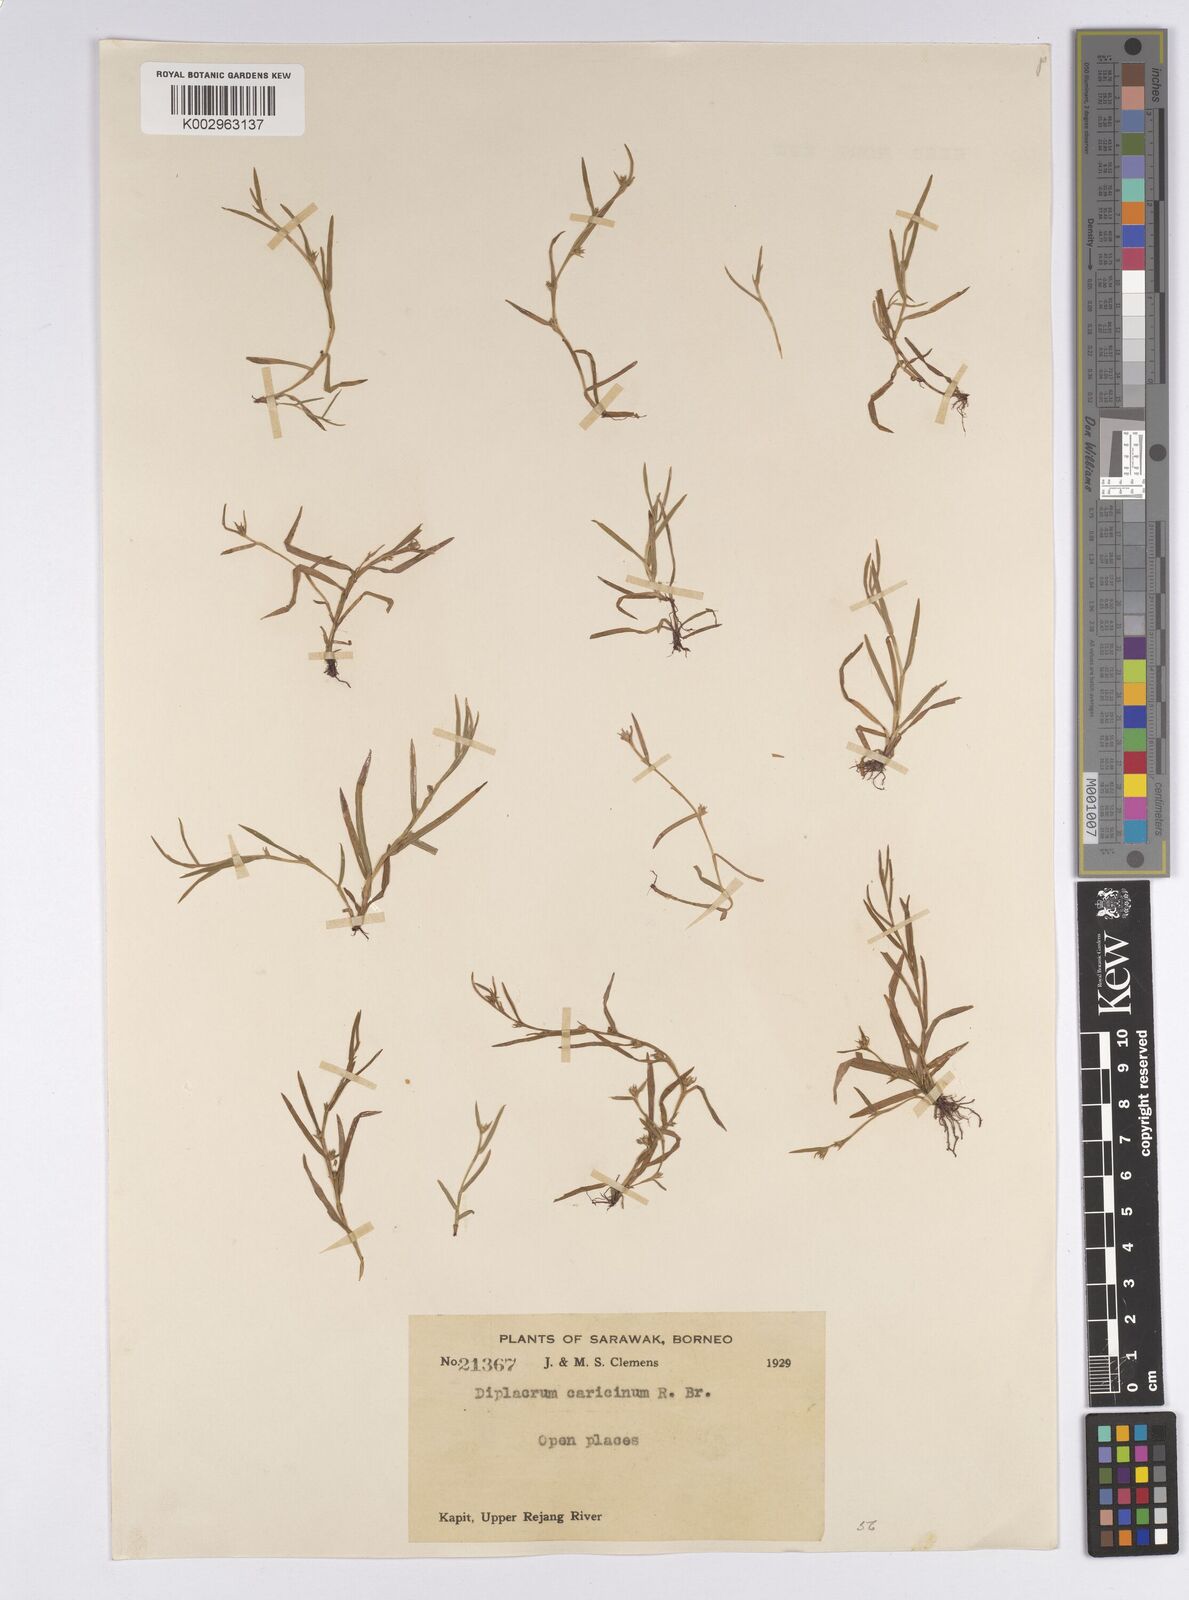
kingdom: Plantae
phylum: Tracheophyta
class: Liliopsida
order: Poales
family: Cyperaceae
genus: Diplacrum
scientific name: Diplacrum caricinum
